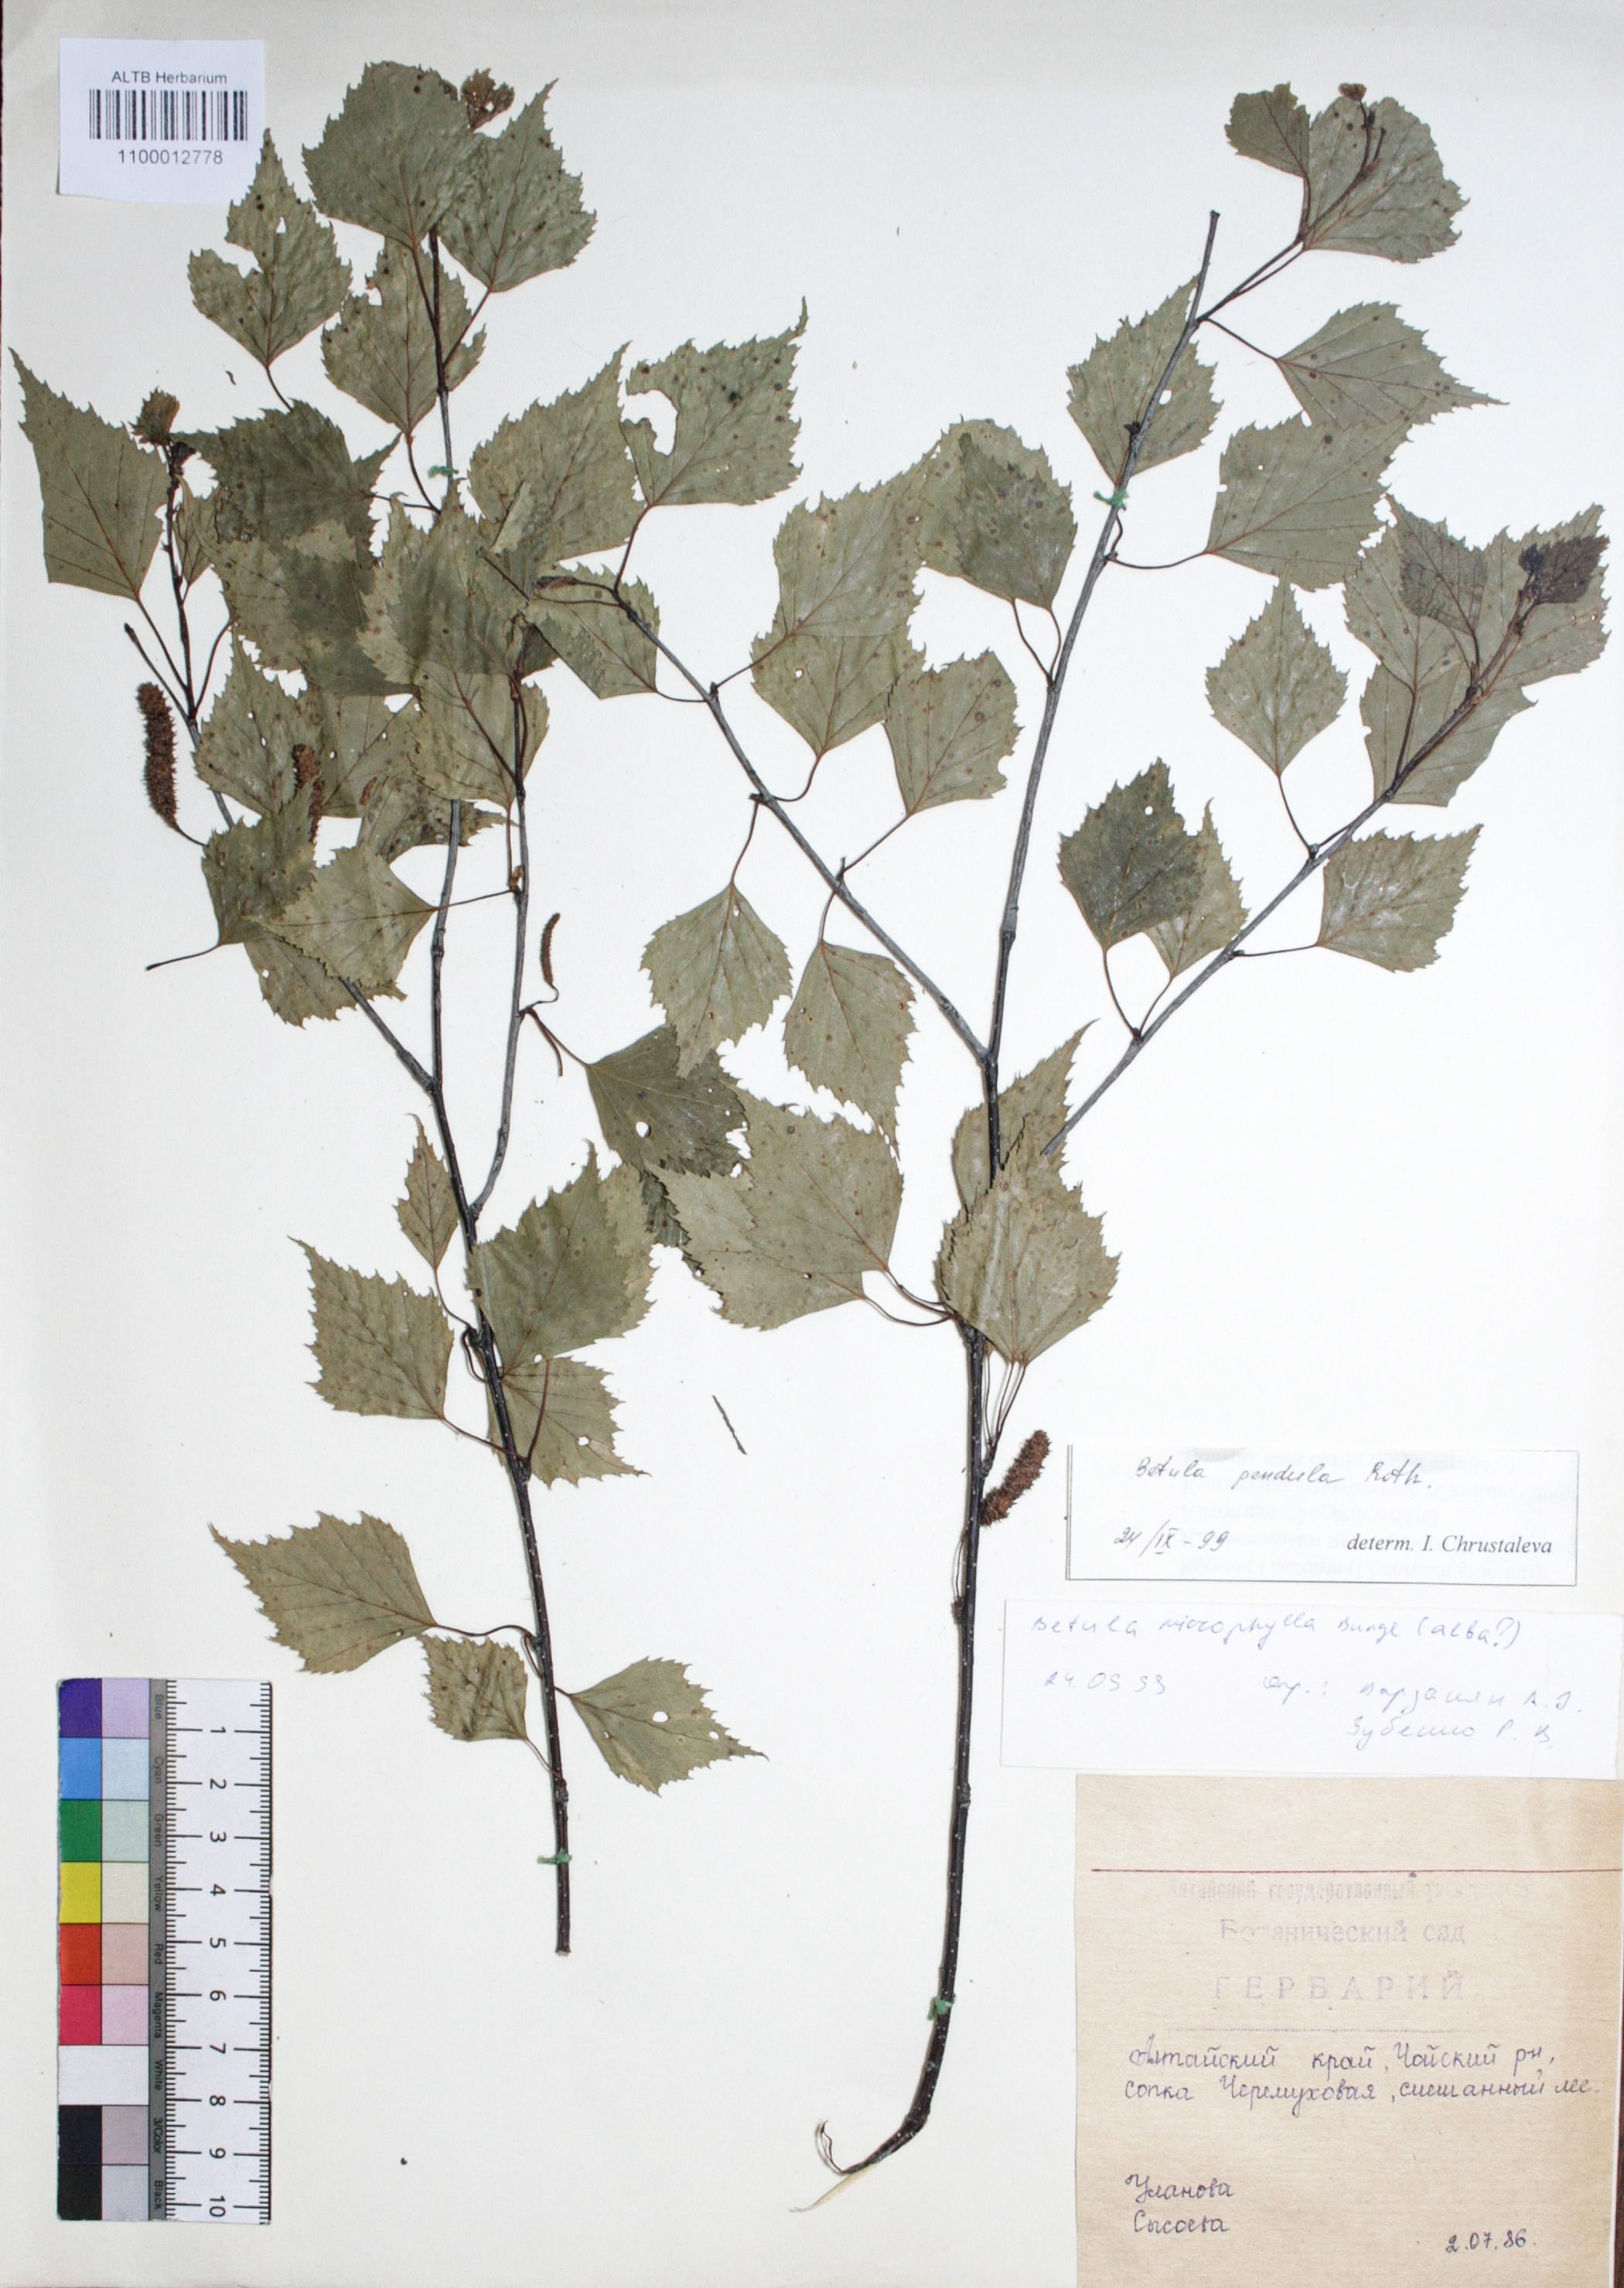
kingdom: Plantae
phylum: Tracheophyta
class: Magnoliopsida
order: Fagales
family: Betulaceae
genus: Betula
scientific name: Betula pendula
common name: Silver birch
